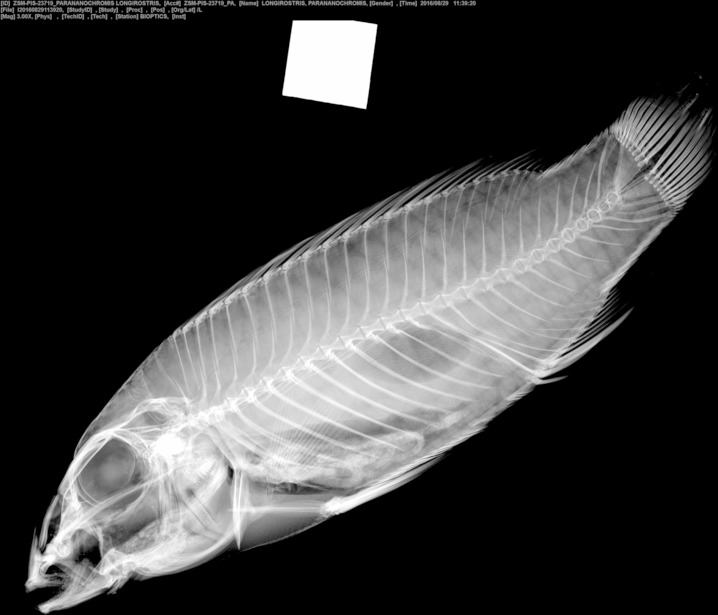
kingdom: Animalia
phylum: Chordata
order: Perciformes
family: Cichlidae
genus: Parananochromis
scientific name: Parananochromis longirostris
